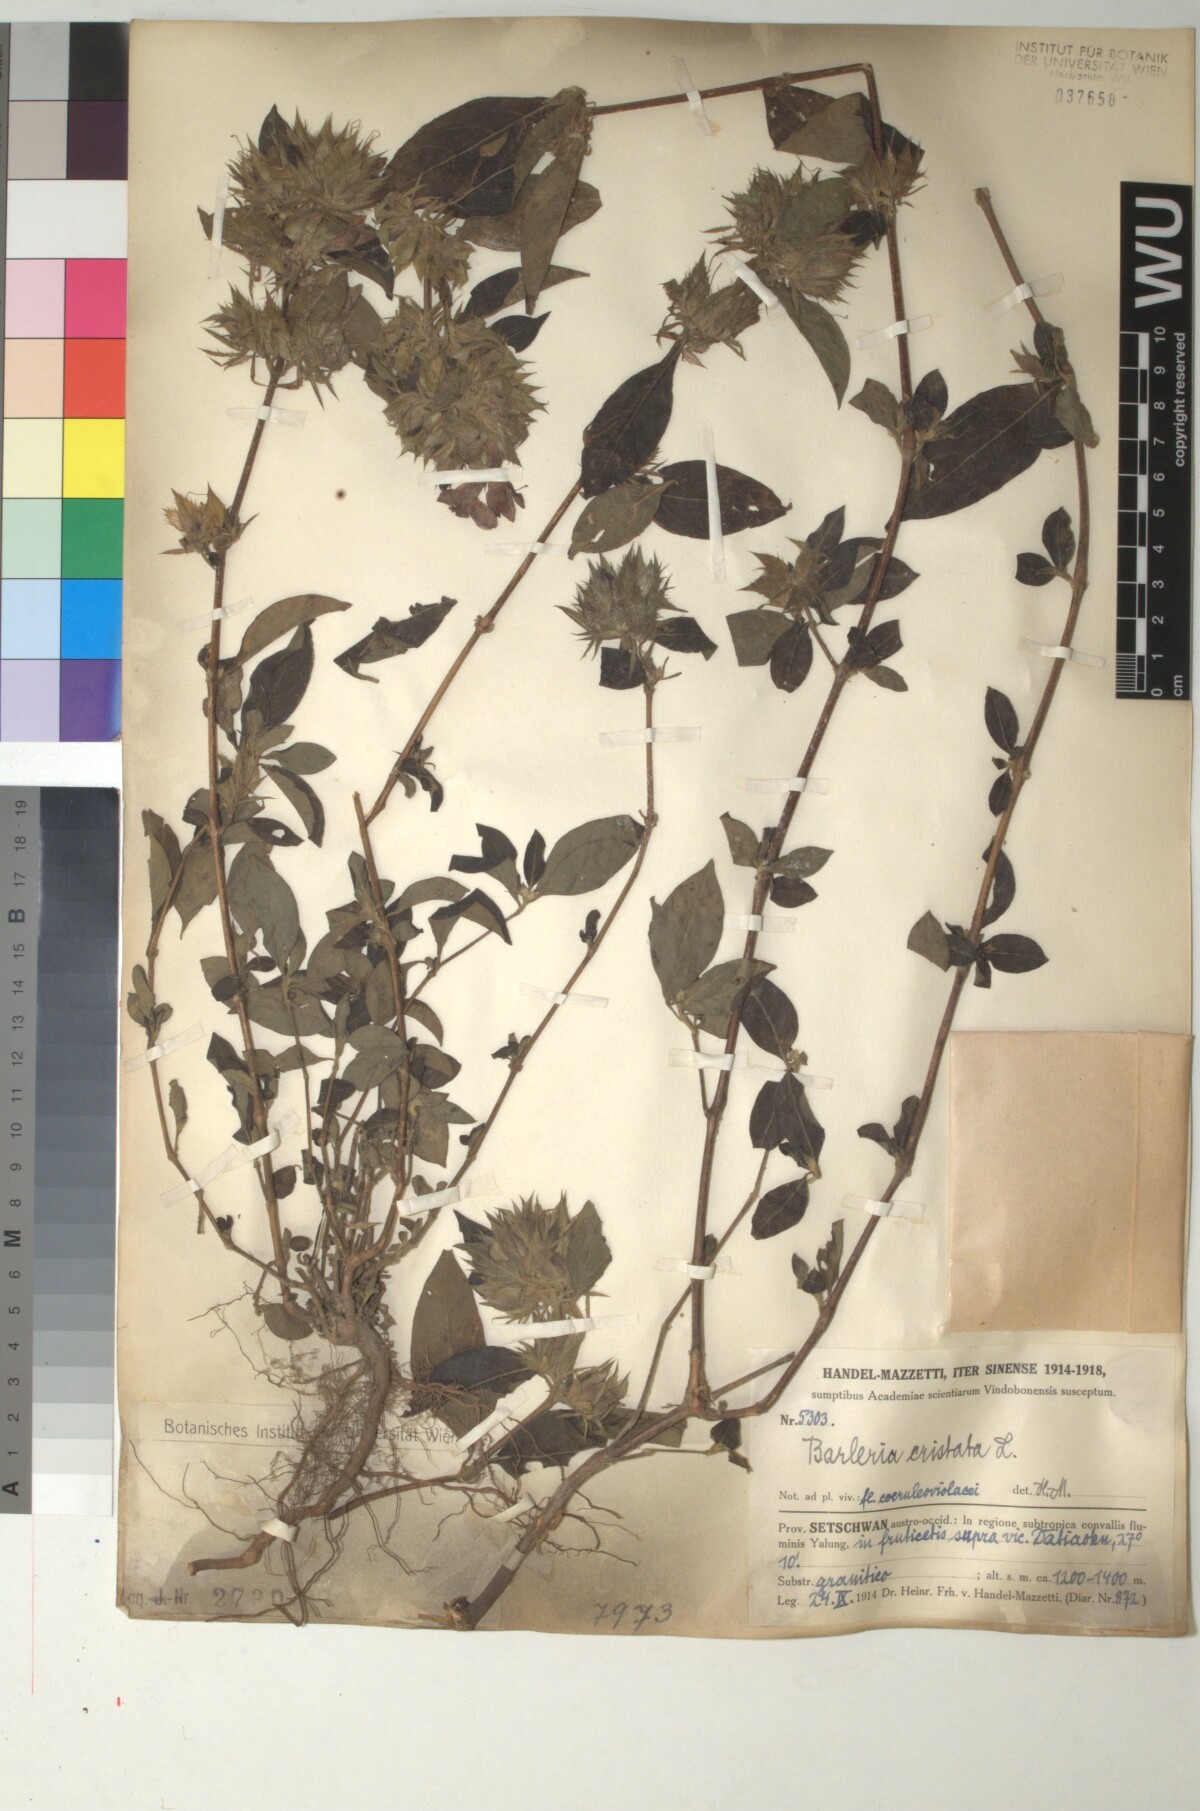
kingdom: Plantae
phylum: Tracheophyta
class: Magnoliopsida
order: Lamiales
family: Acanthaceae
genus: Barleria
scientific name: Barleria cristata
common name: Crested philippine violet
